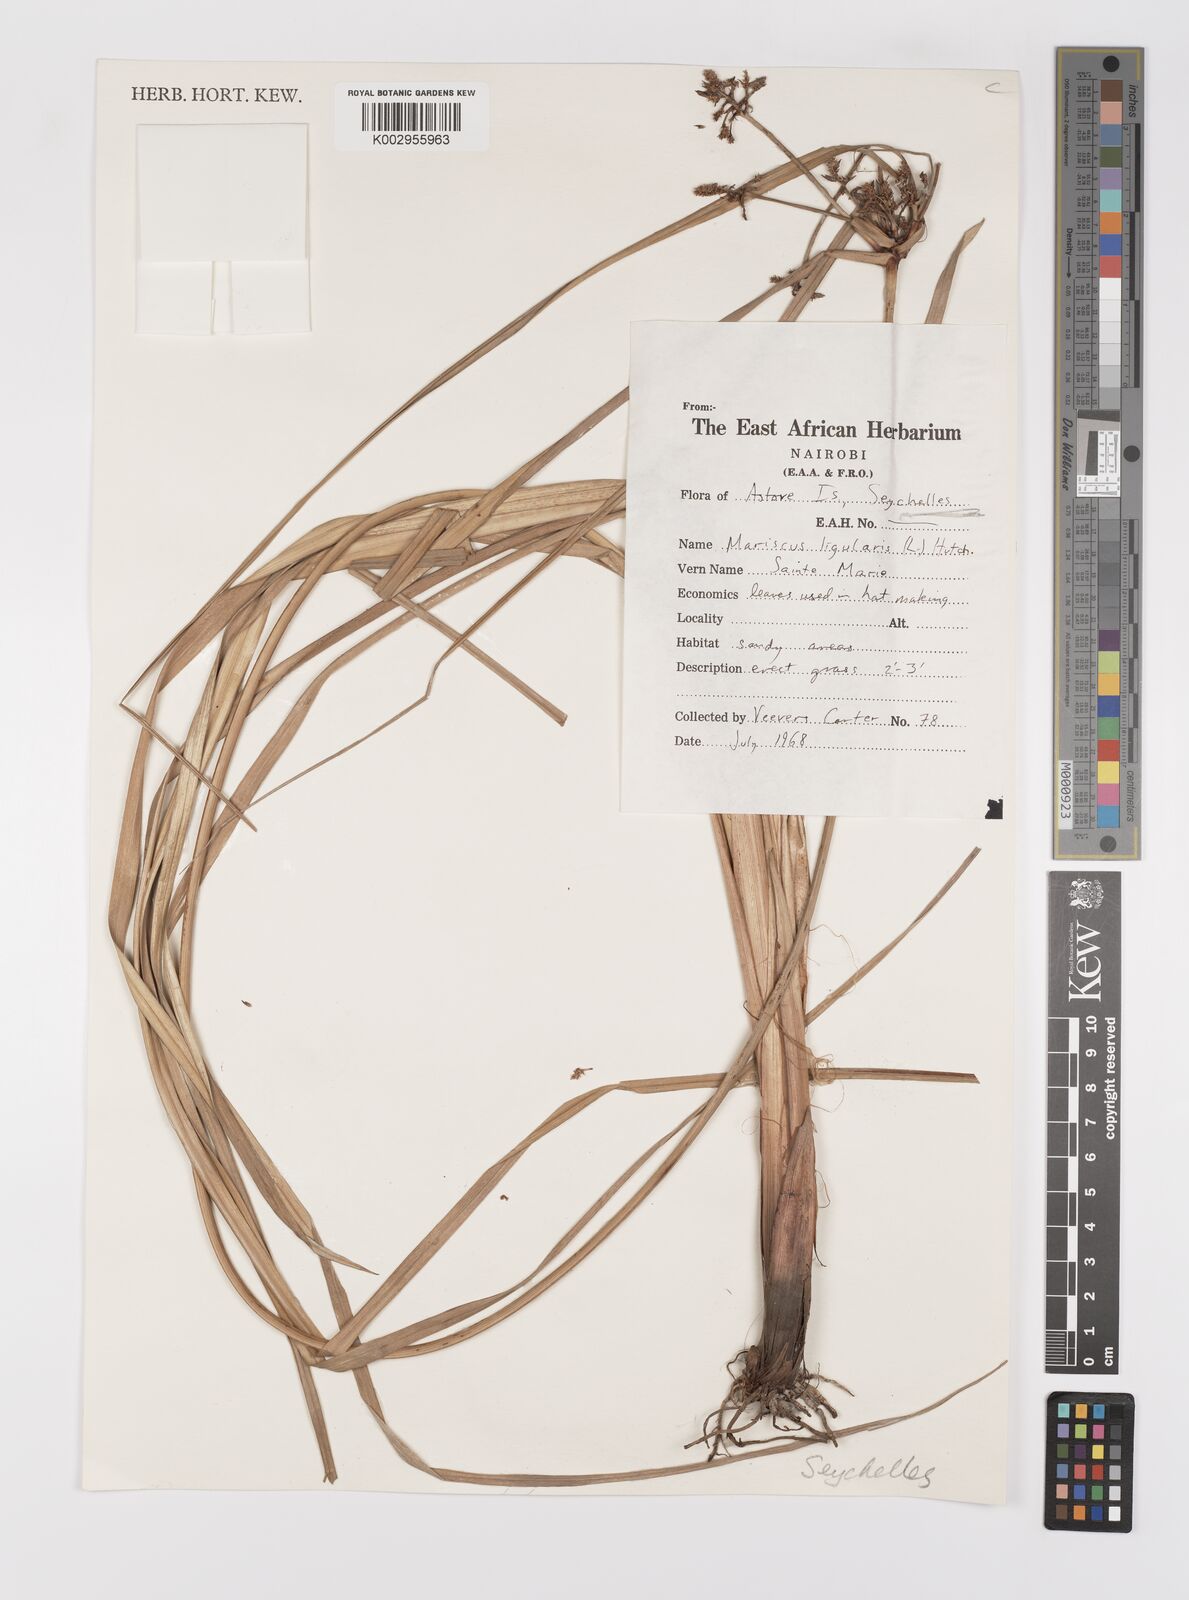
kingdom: Plantae
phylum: Tracheophyta
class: Liliopsida
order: Poales
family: Cyperaceae
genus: Cyperus
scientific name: Cyperus ligularis
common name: Swamp flat sedge
